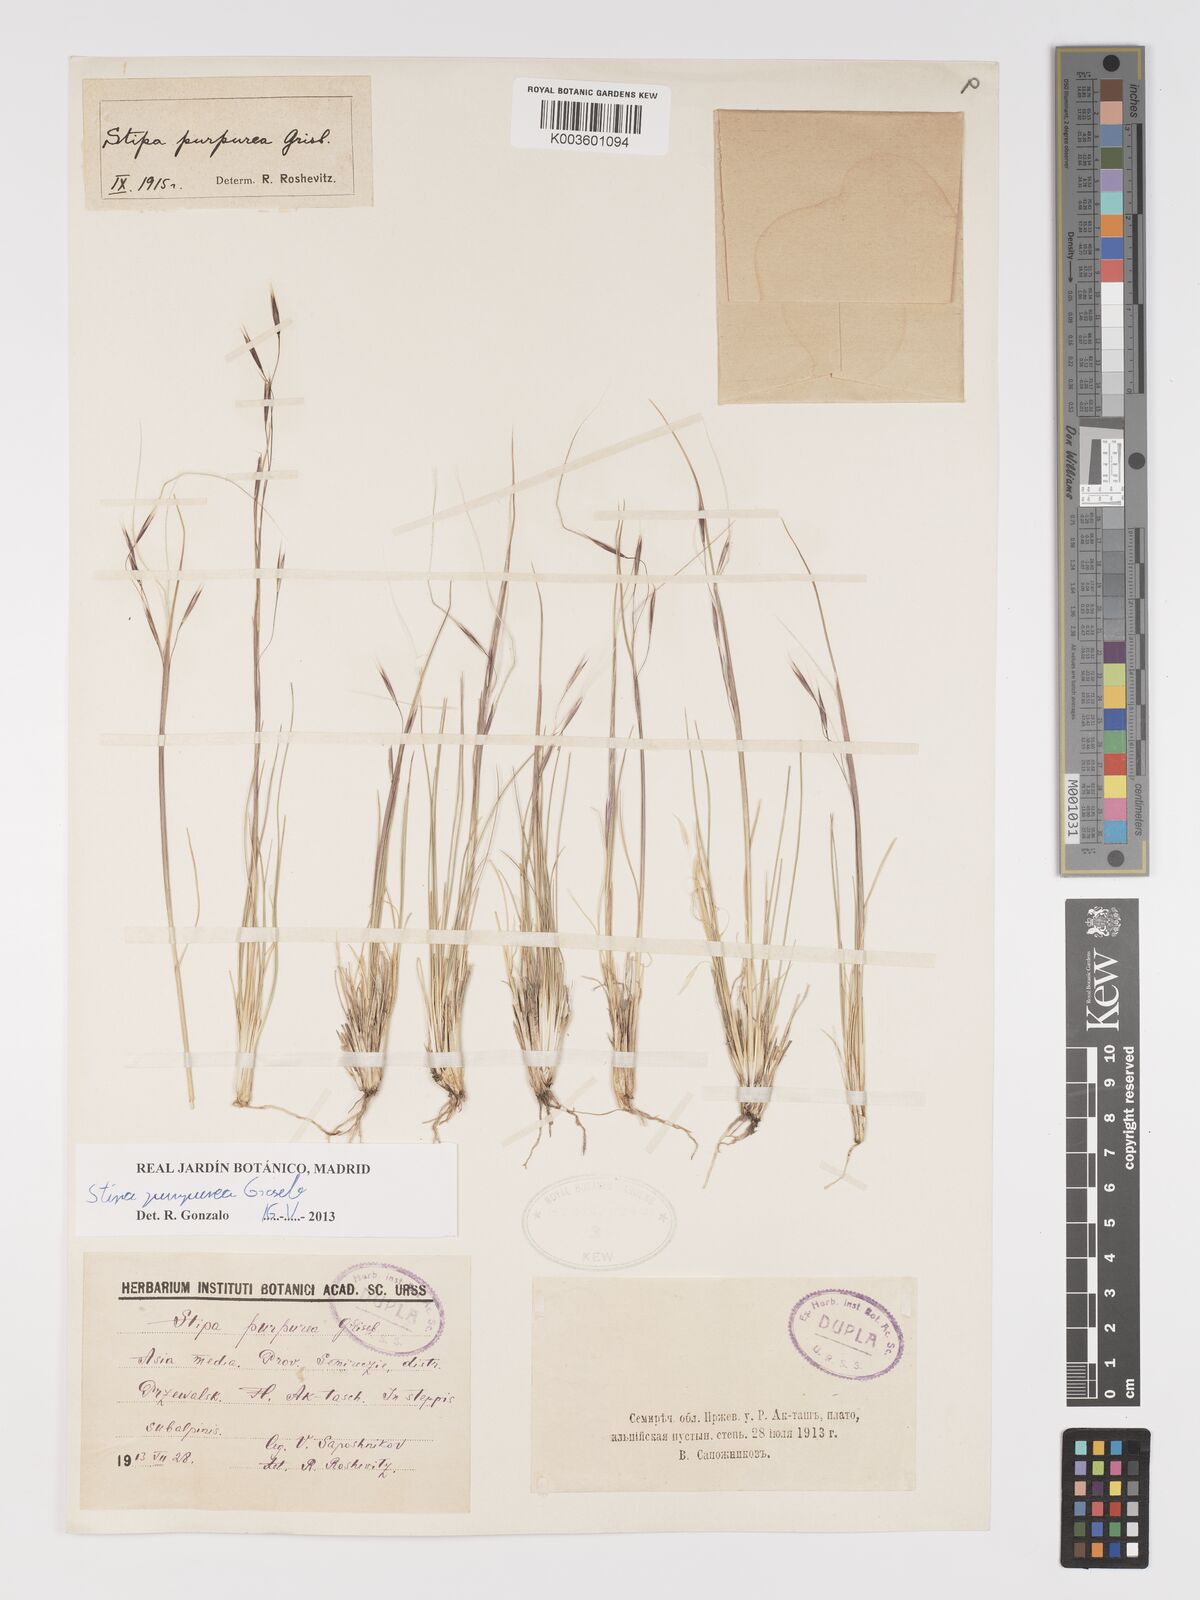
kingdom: Plantae
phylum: Tracheophyta
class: Liliopsida
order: Poales
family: Poaceae
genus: Stipa
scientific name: Stipa purpurea
